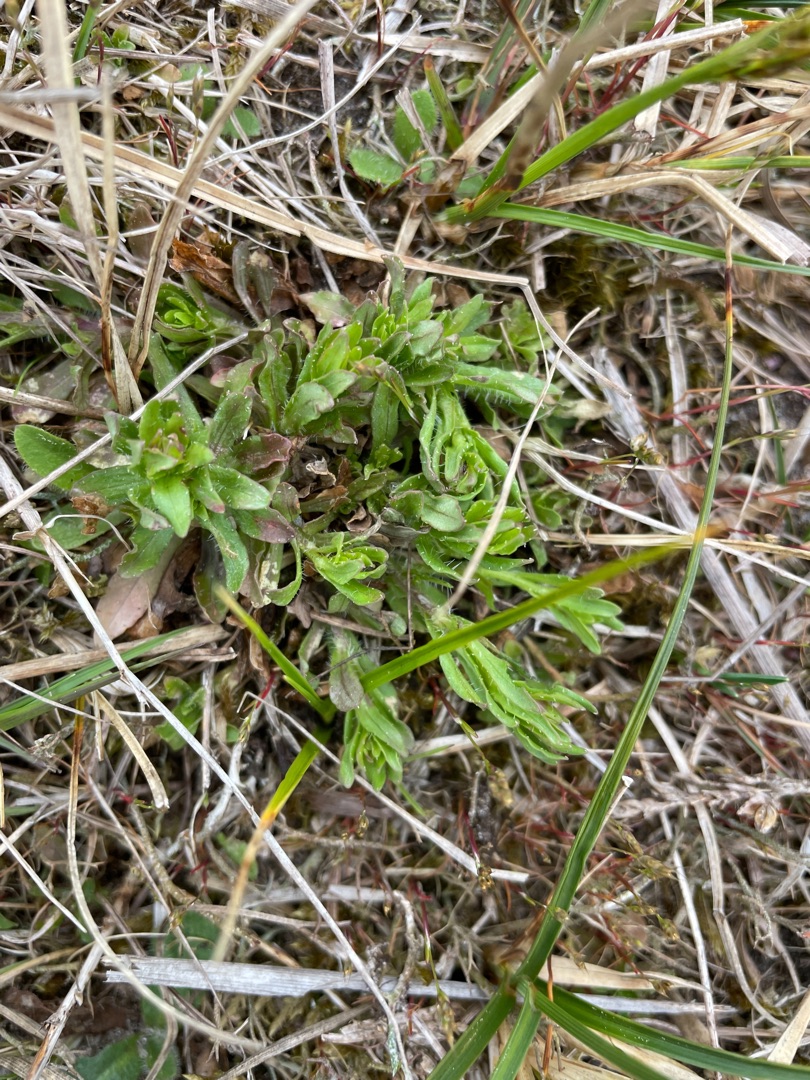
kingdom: Plantae
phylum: Tracheophyta
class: Magnoliopsida
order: Asterales
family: Campanulaceae
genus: Jasione
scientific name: Jasione montana
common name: Blåmunke
